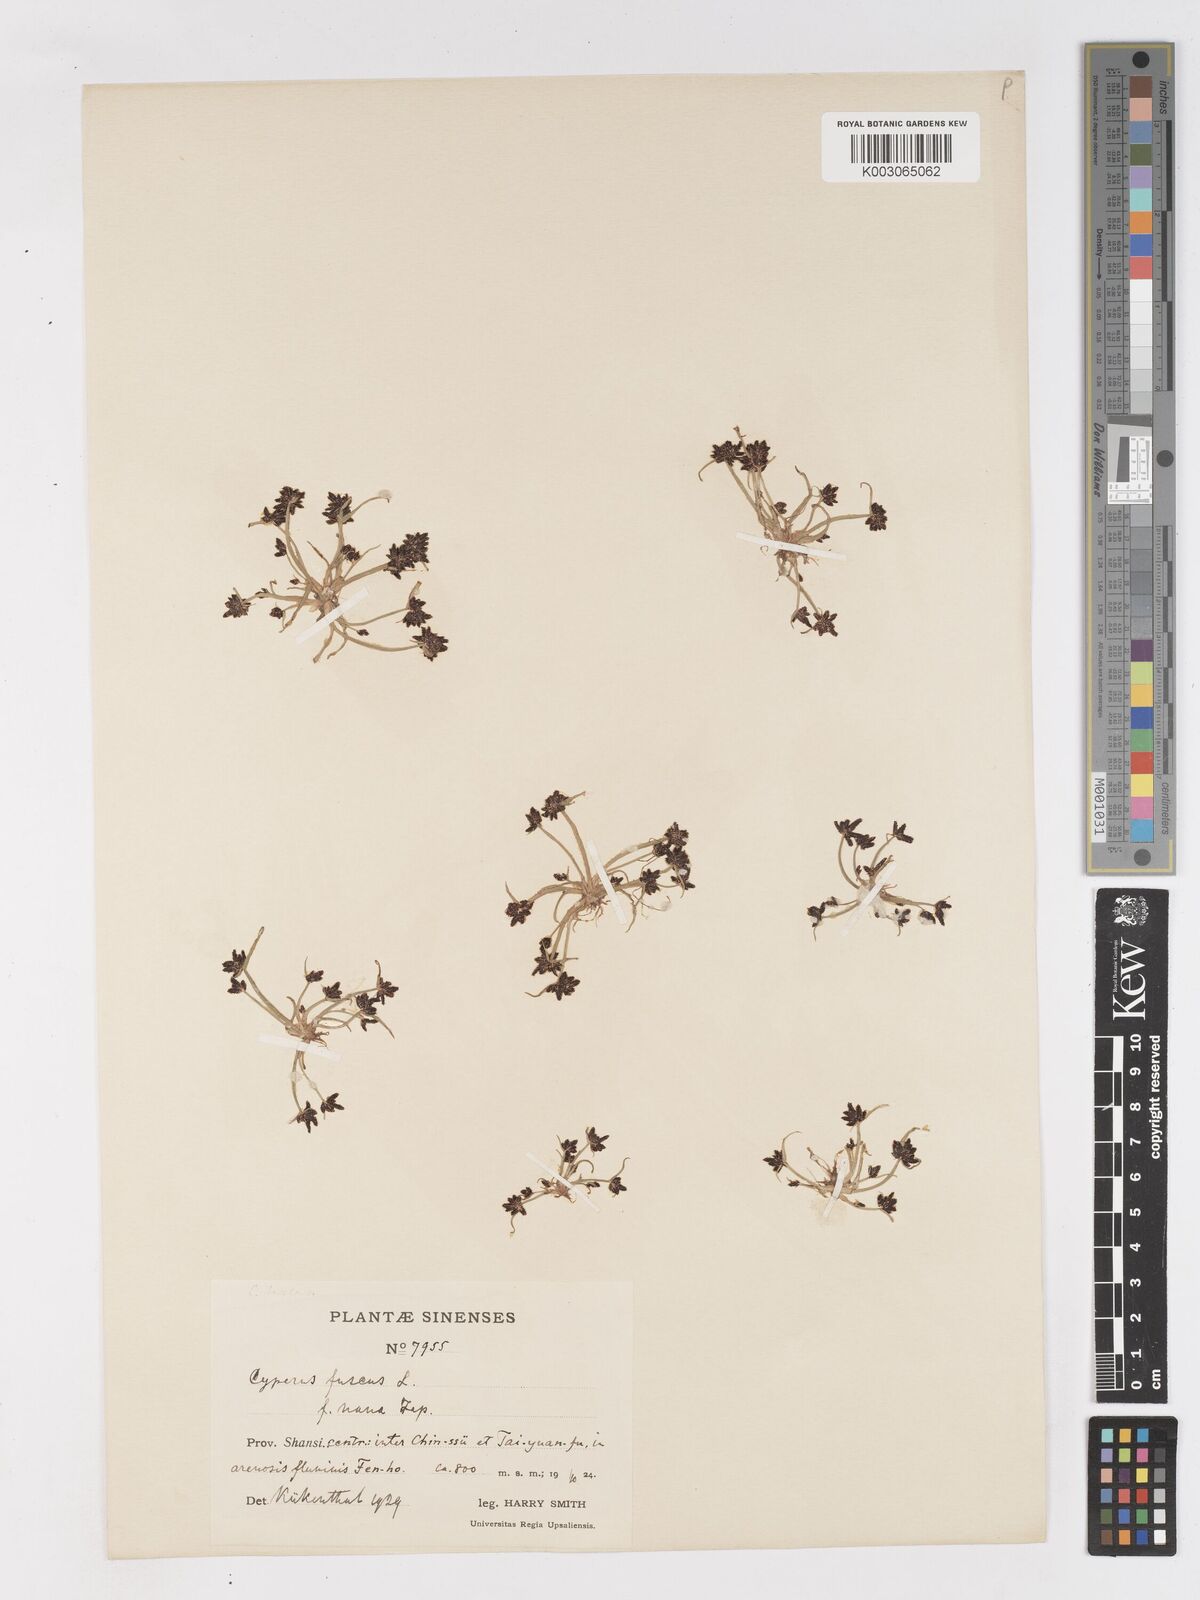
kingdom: Plantae
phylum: Tracheophyta
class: Liliopsida
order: Poales
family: Cyperaceae
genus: Cyperus
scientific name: Cyperus fuscus
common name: Brown galingale
